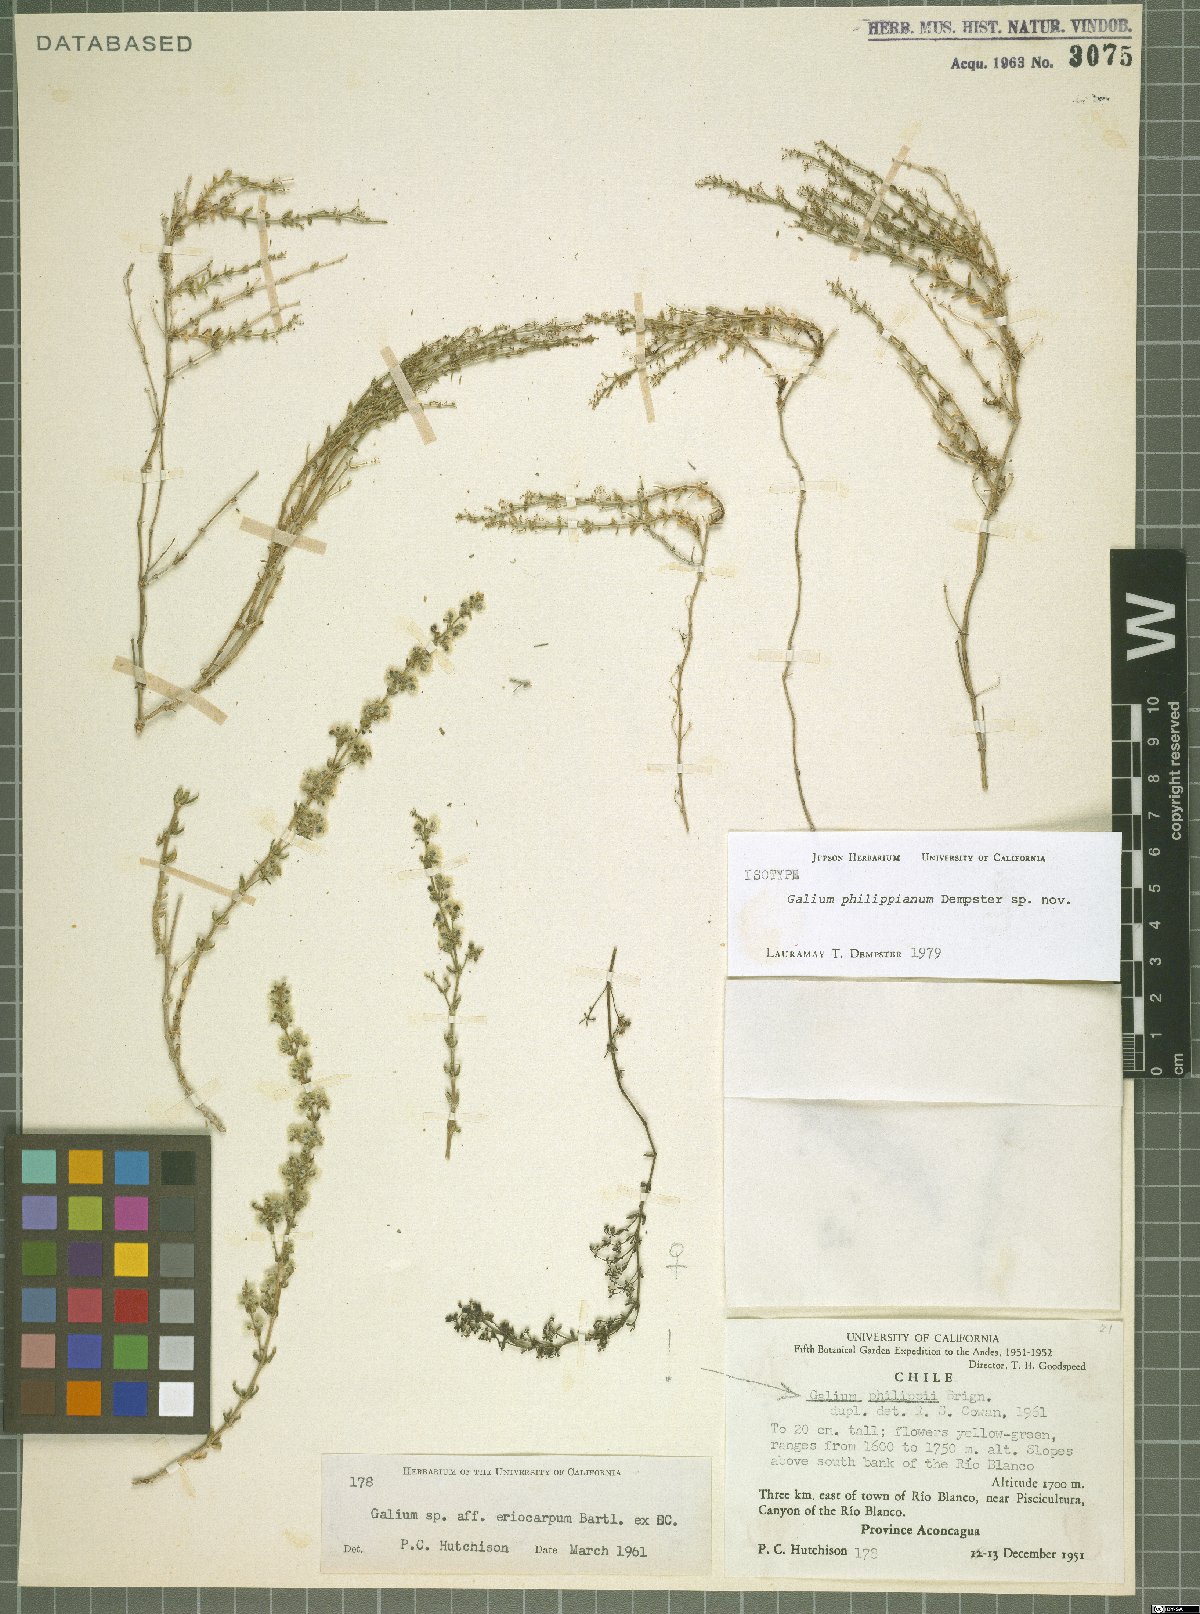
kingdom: Plantae
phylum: Tracheophyta
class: Magnoliopsida
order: Gentianales
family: Rubiaceae
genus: Galium
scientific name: Galium philippianum
